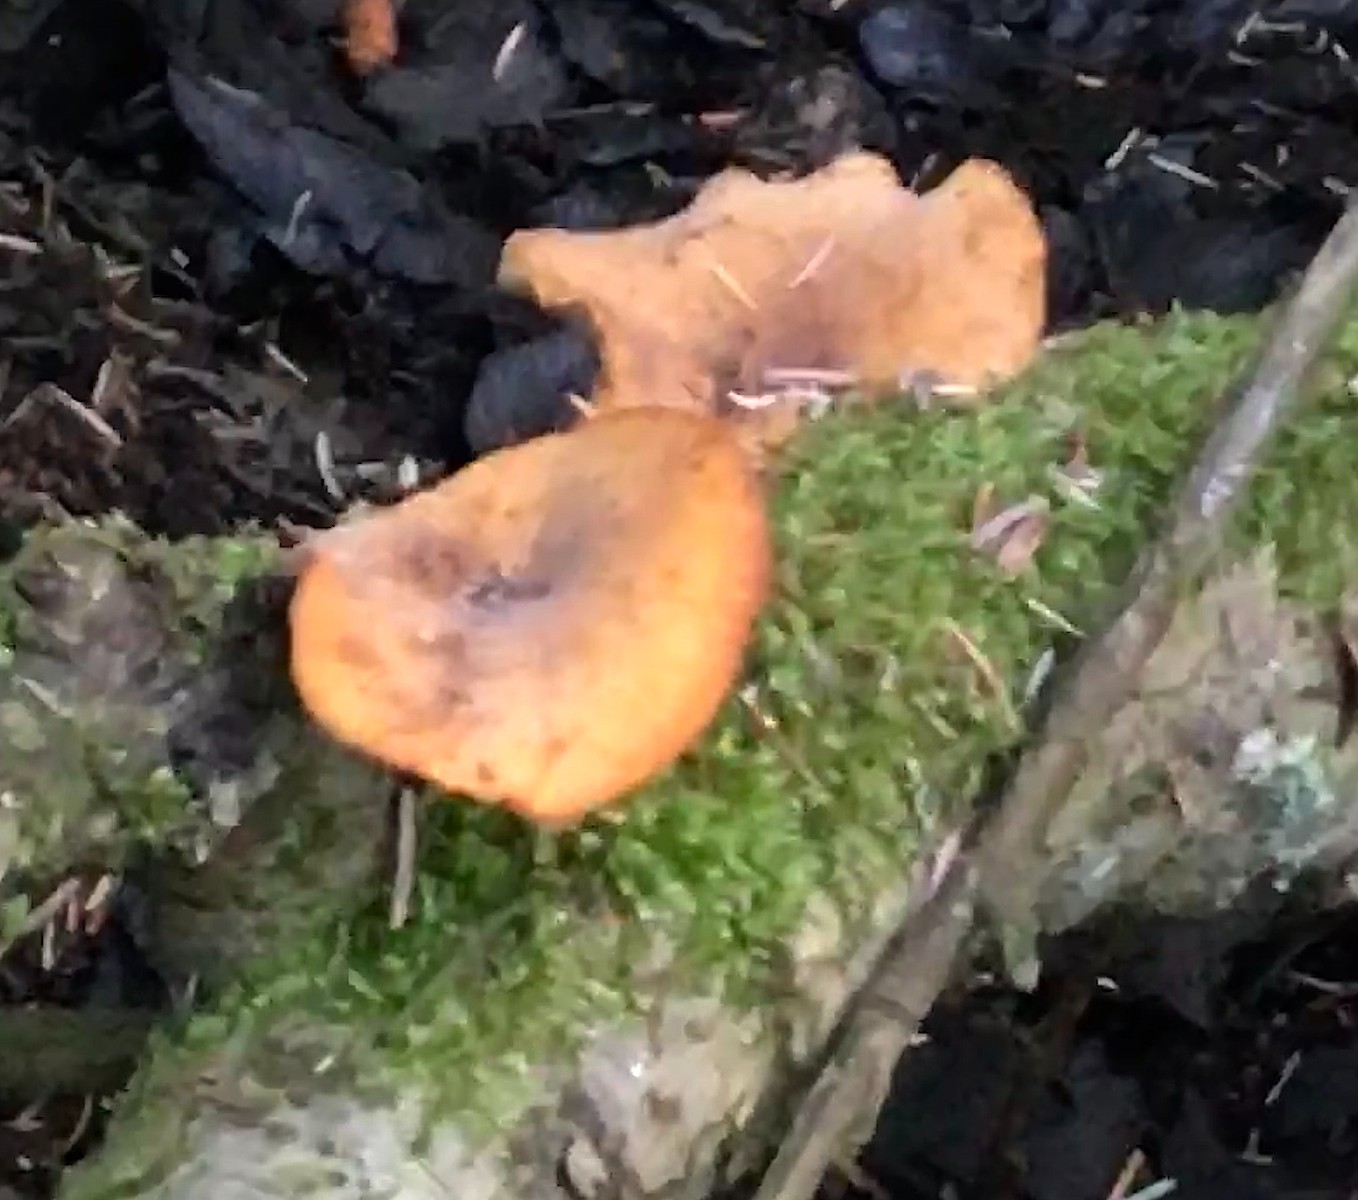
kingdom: Fungi
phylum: Basidiomycota
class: Agaricomycetes
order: Polyporales
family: Polyporaceae
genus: Cerioporus
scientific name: Cerioporus varius
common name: foranderlig stilkporesvamp
